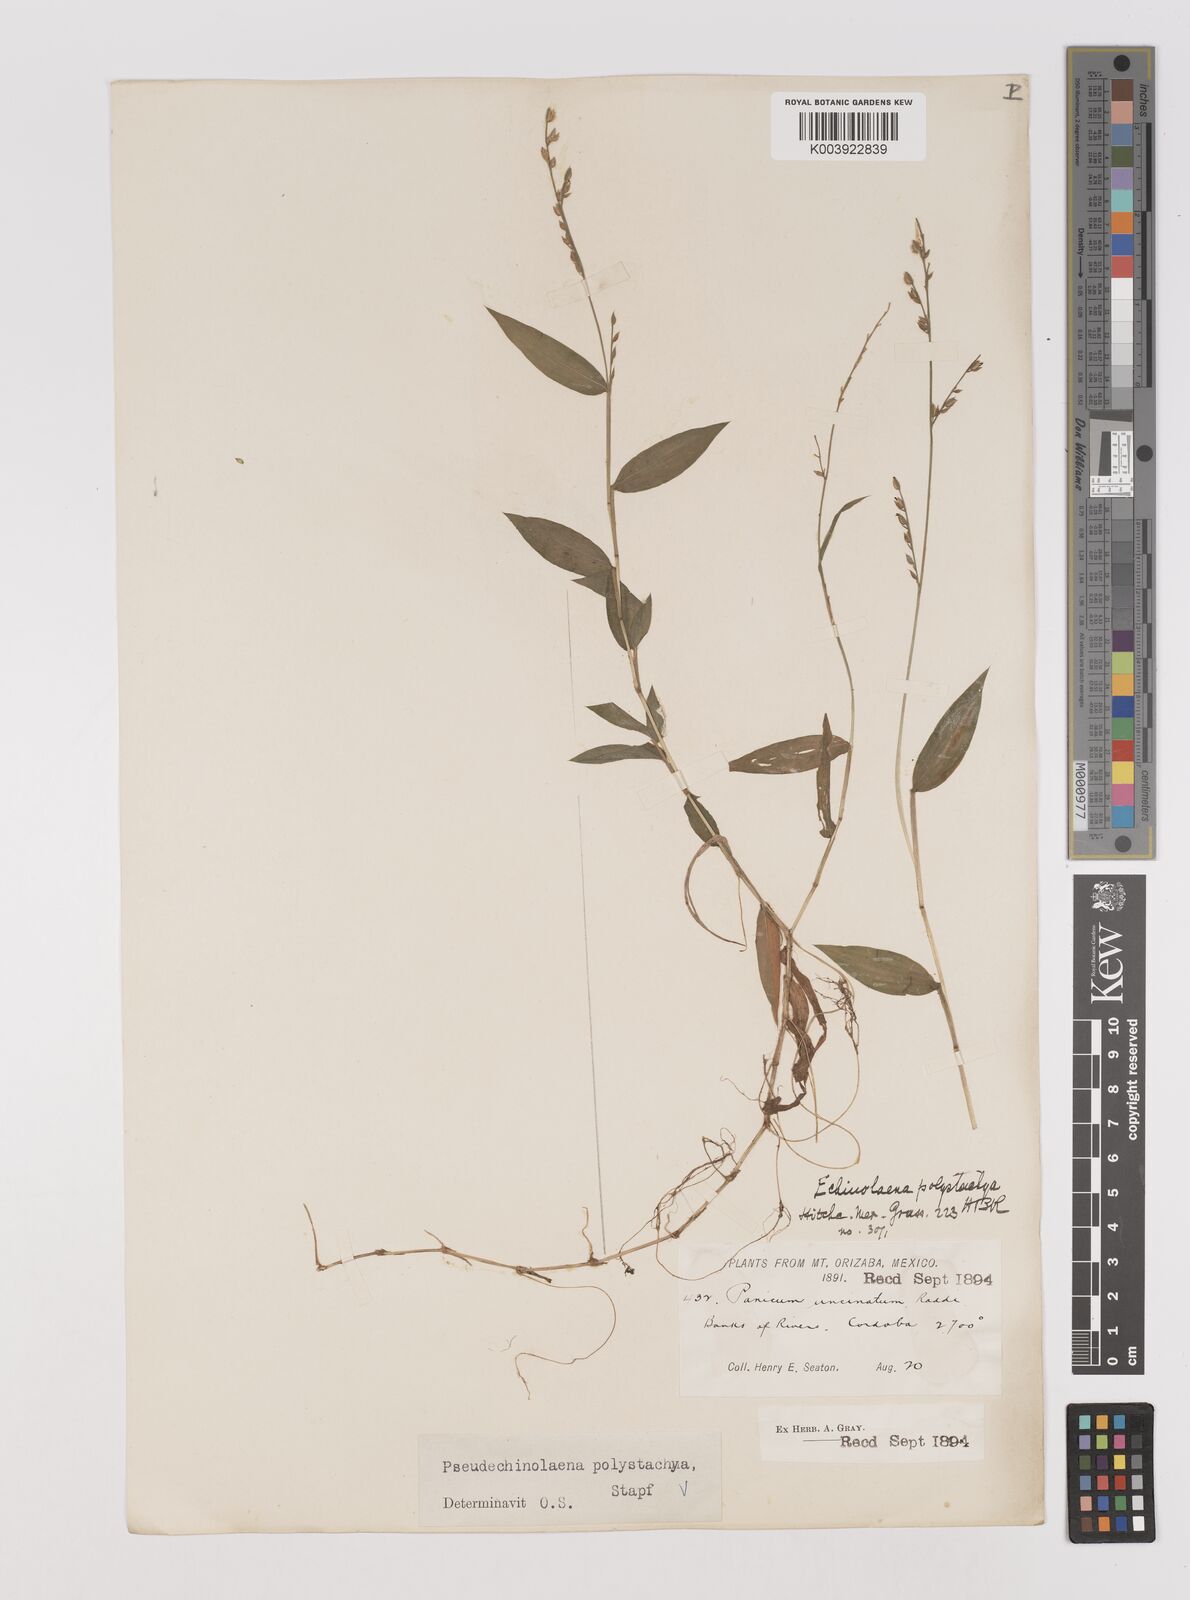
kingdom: Plantae
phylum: Tracheophyta
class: Liliopsida
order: Poales
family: Poaceae
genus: Pseudechinolaena
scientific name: Pseudechinolaena polystachya
